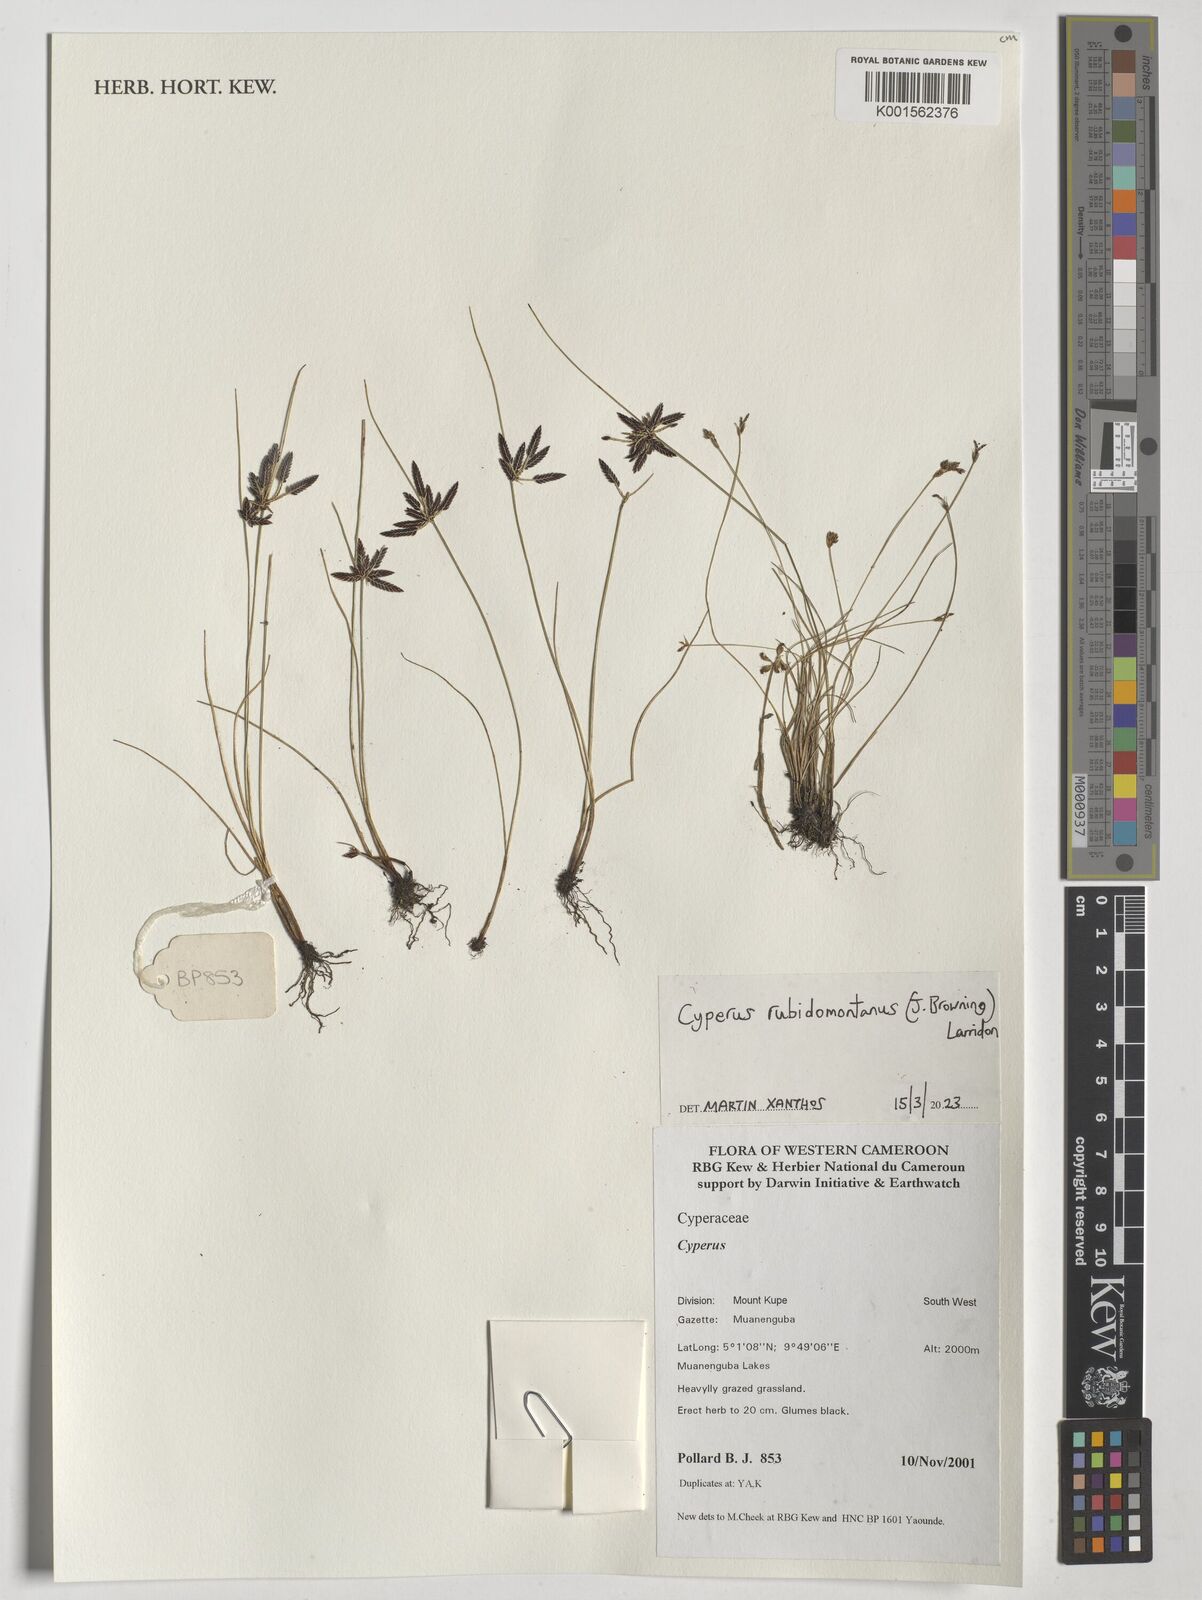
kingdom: Plantae
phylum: Tracheophyta
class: Liliopsida
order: Poales
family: Cyperaceae
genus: Cyperus
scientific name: Cyperus
